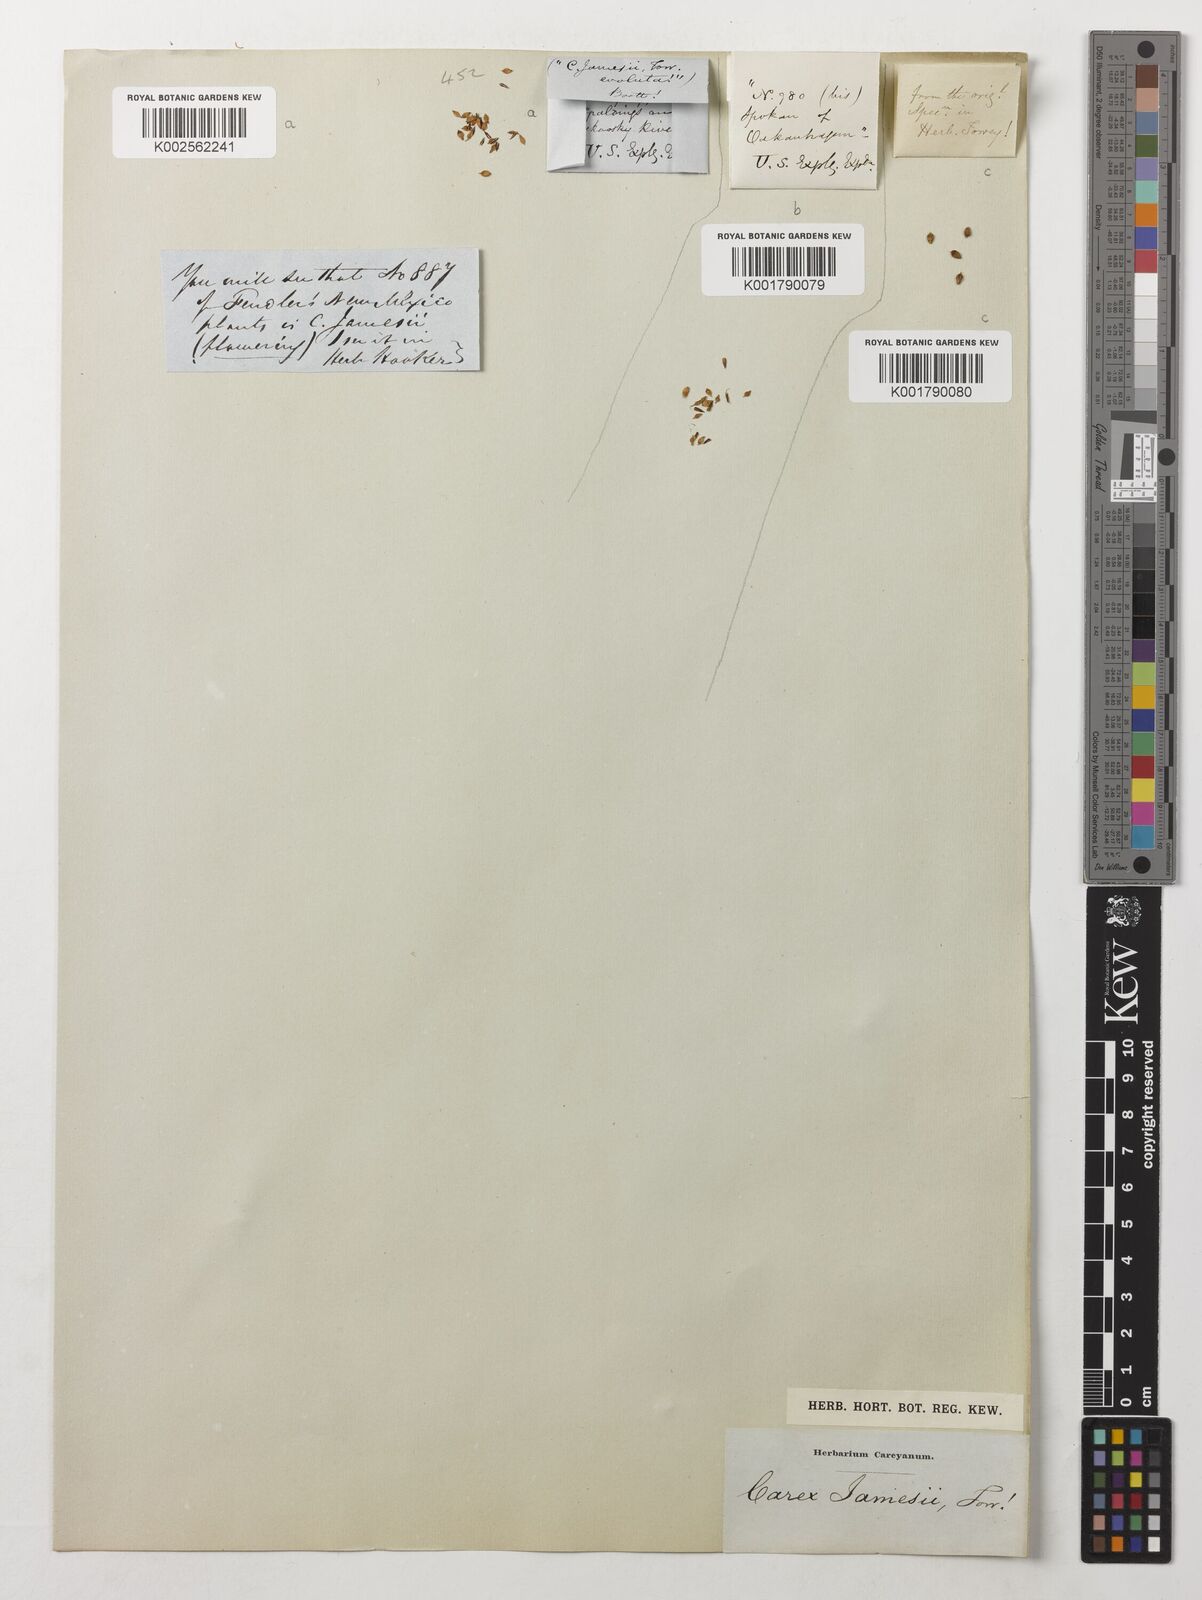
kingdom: Plantae
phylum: Tracheophyta
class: Liliopsida
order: Poales
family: Cyperaceae
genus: Carex
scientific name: Carex jamesii
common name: Grass sedge
